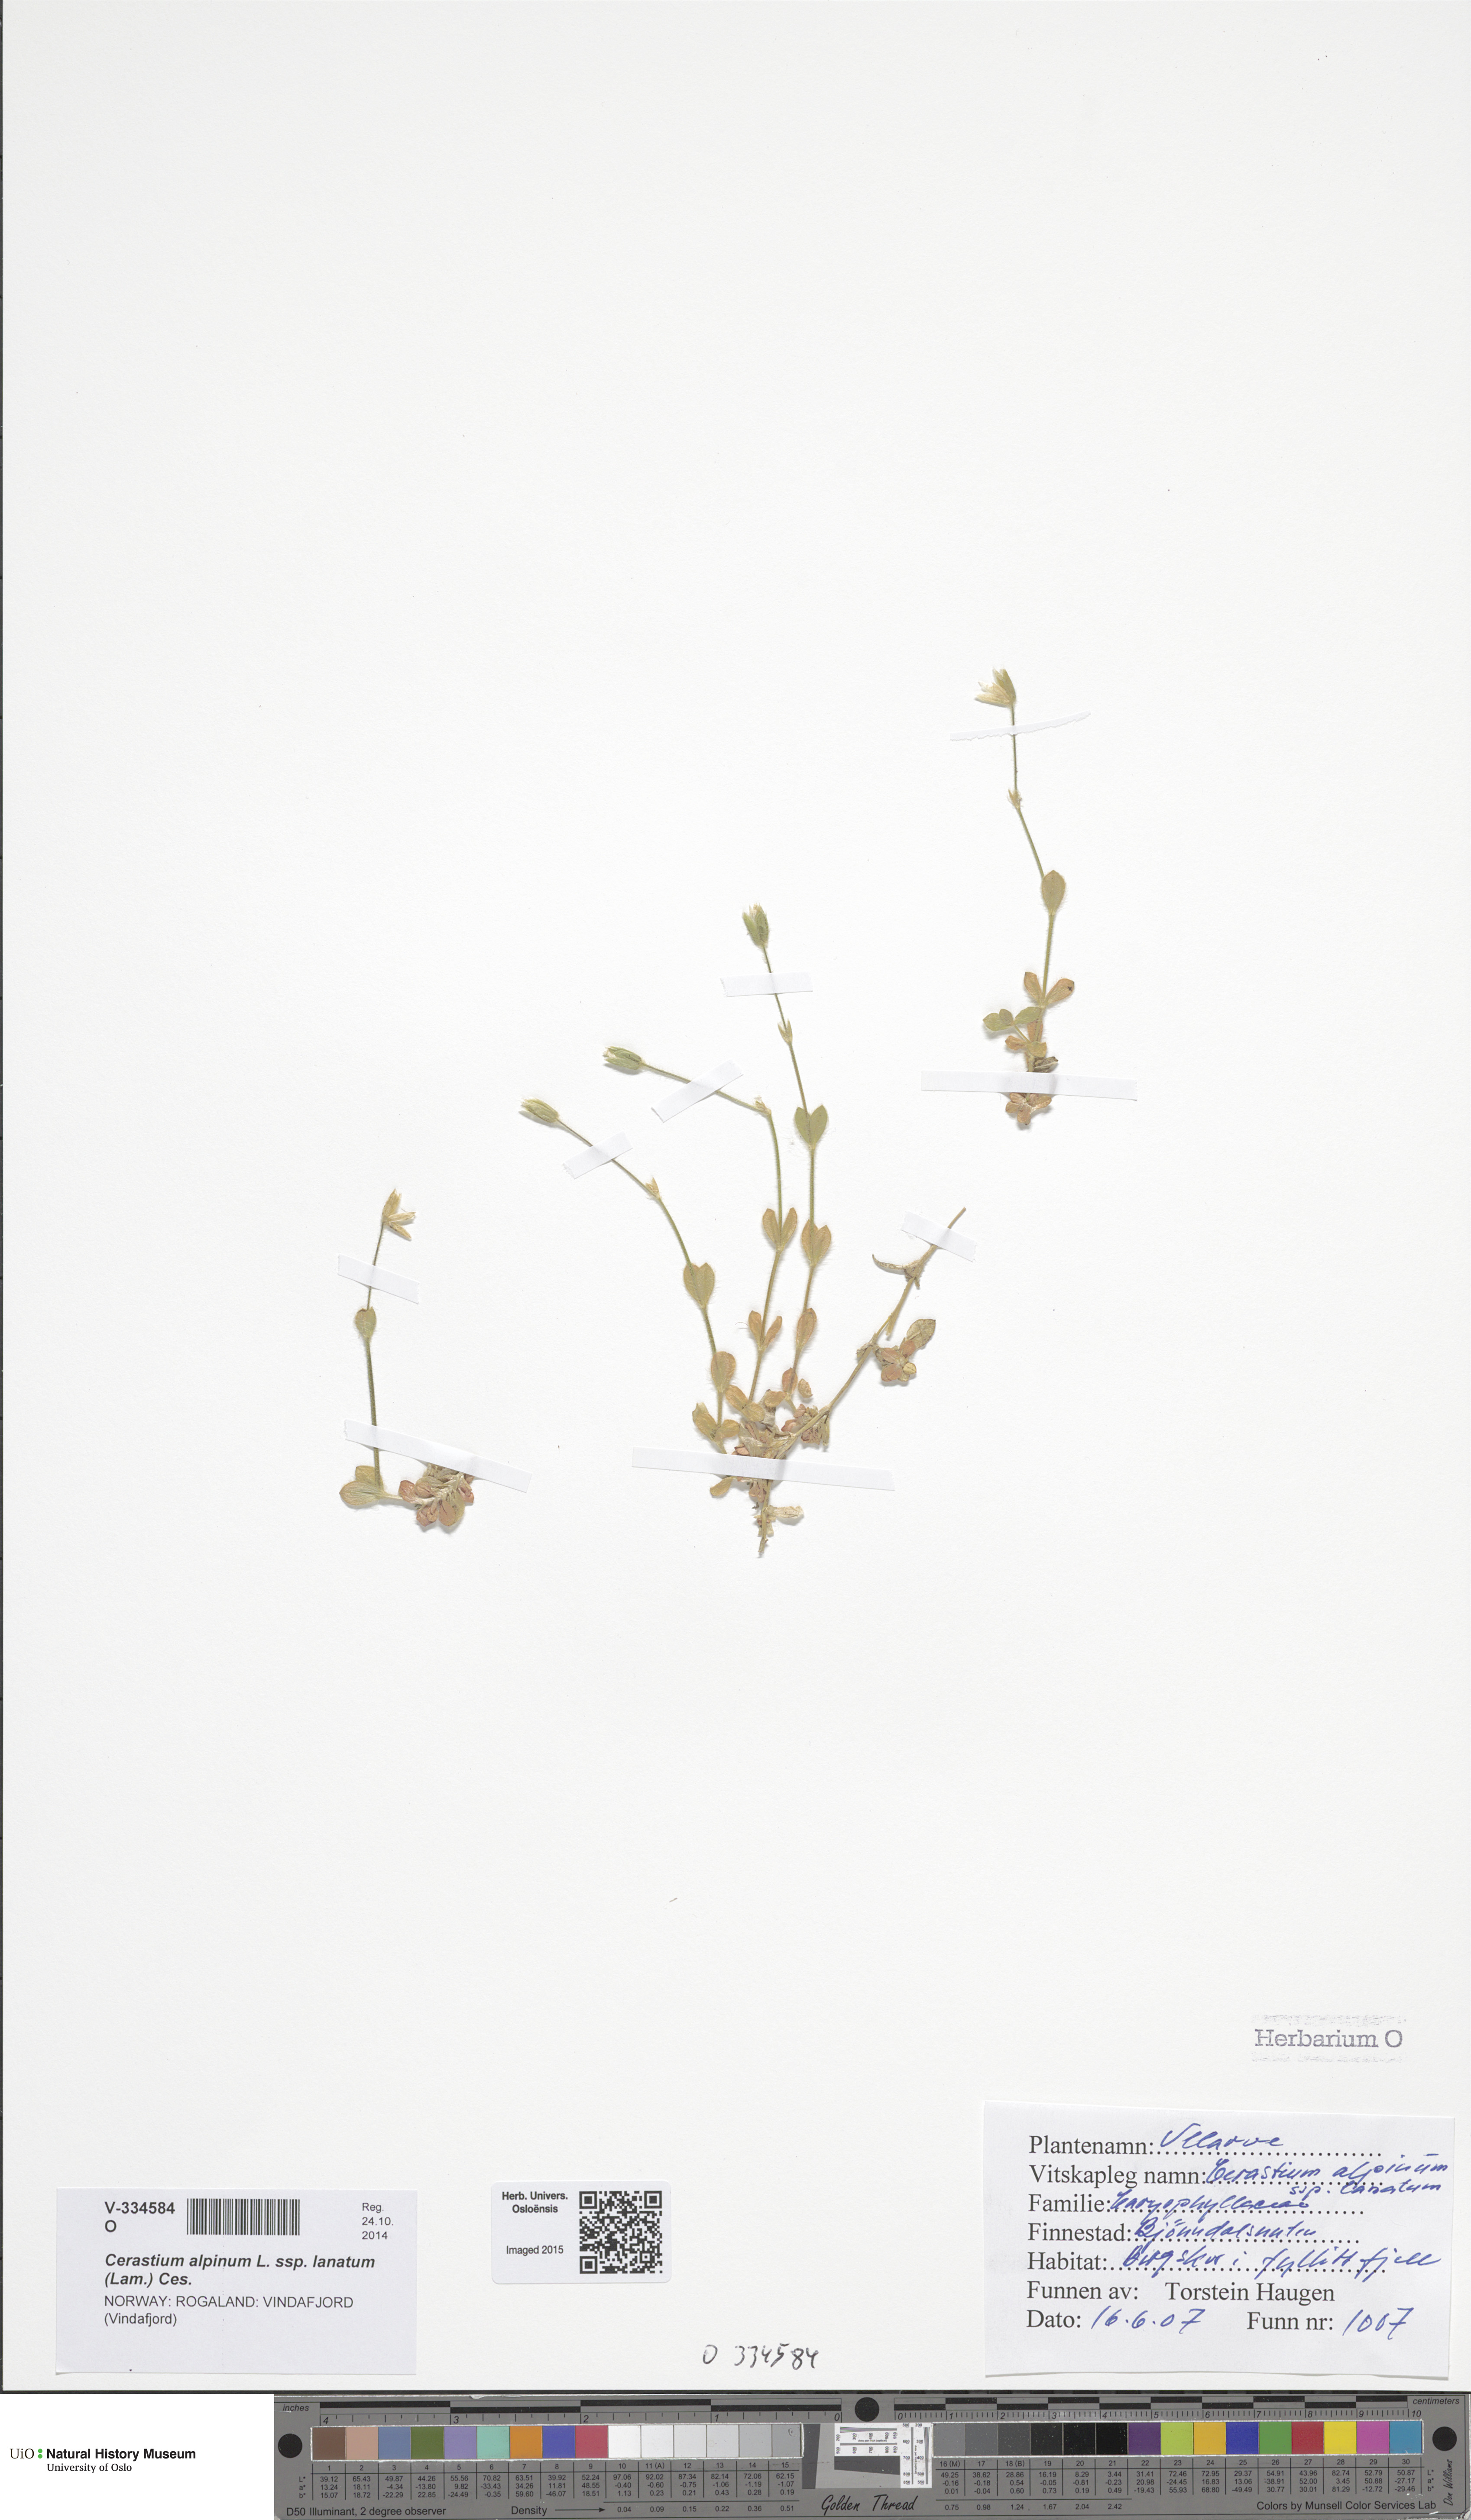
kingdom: Plantae
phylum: Tracheophyta
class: Magnoliopsida
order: Caryophyllales
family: Caryophyllaceae
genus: Cerastium
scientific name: Cerastium alpinum
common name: Alpine mouse-ear
